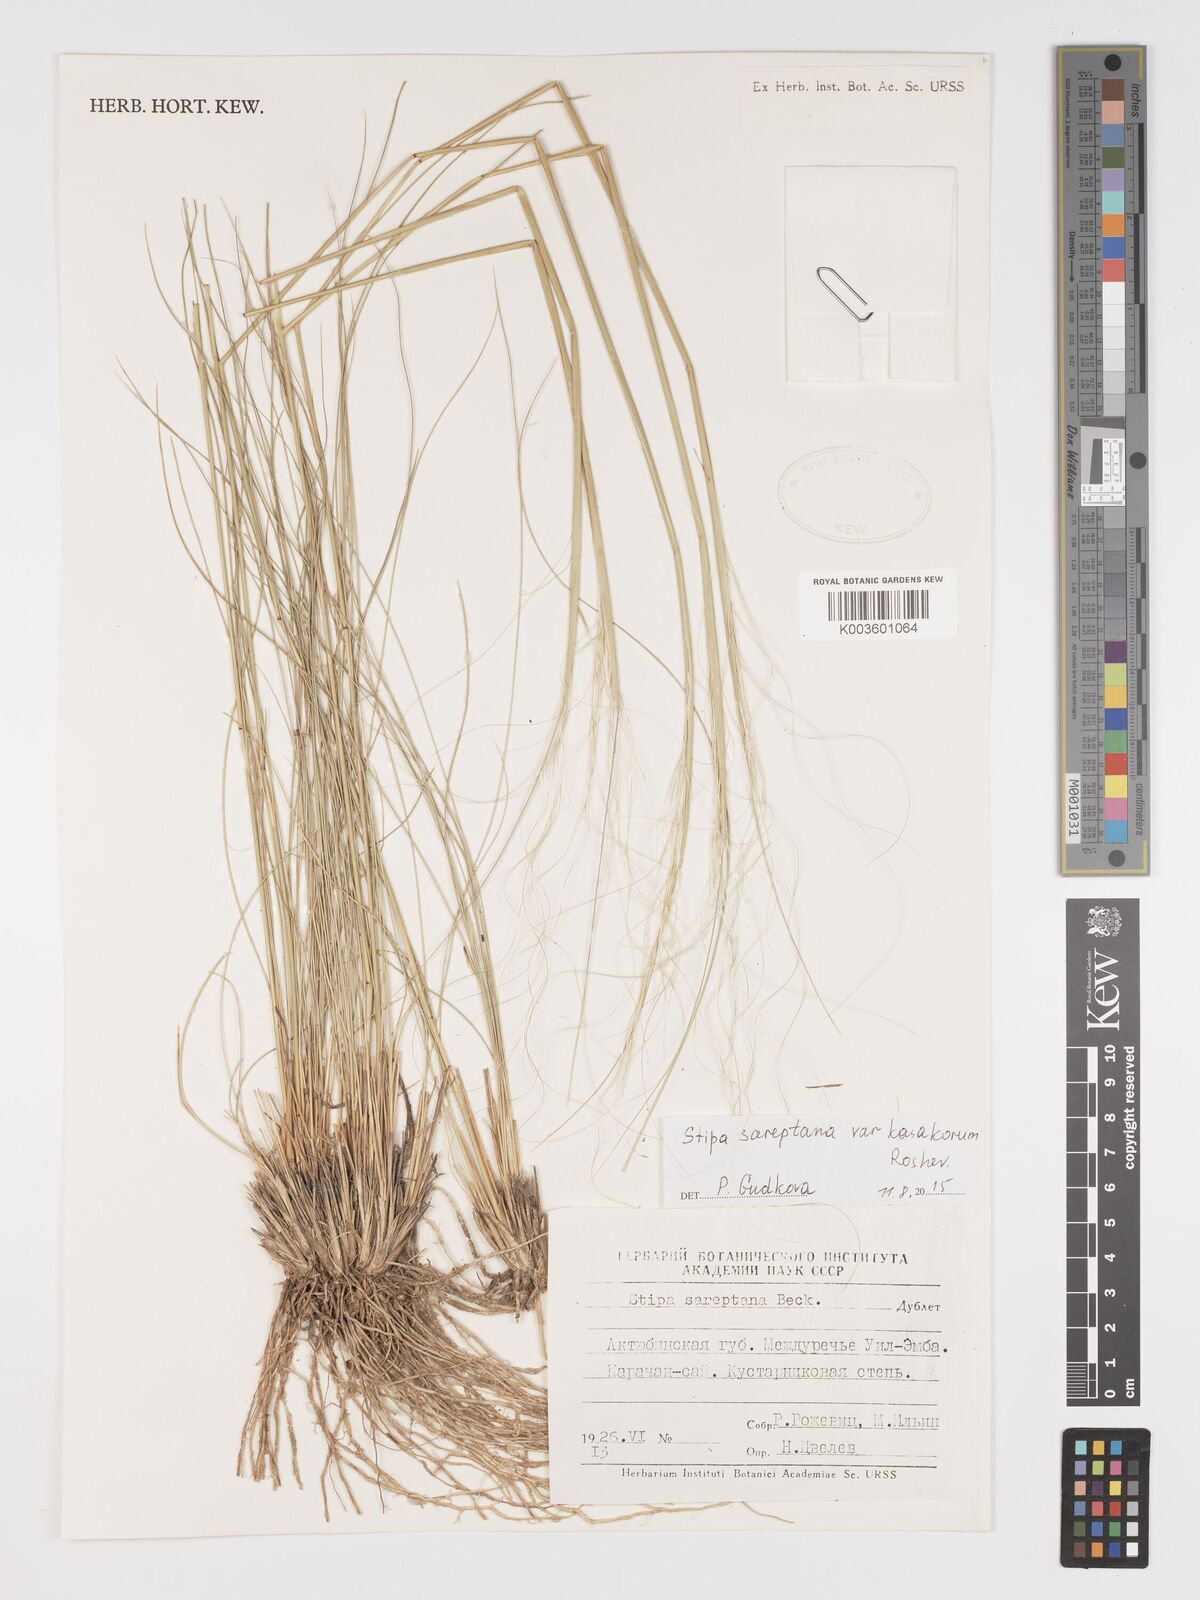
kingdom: Plantae
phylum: Tracheophyta
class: Liliopsida
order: Poales
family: Poaceae
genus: Stipa
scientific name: Stipa sareptana
